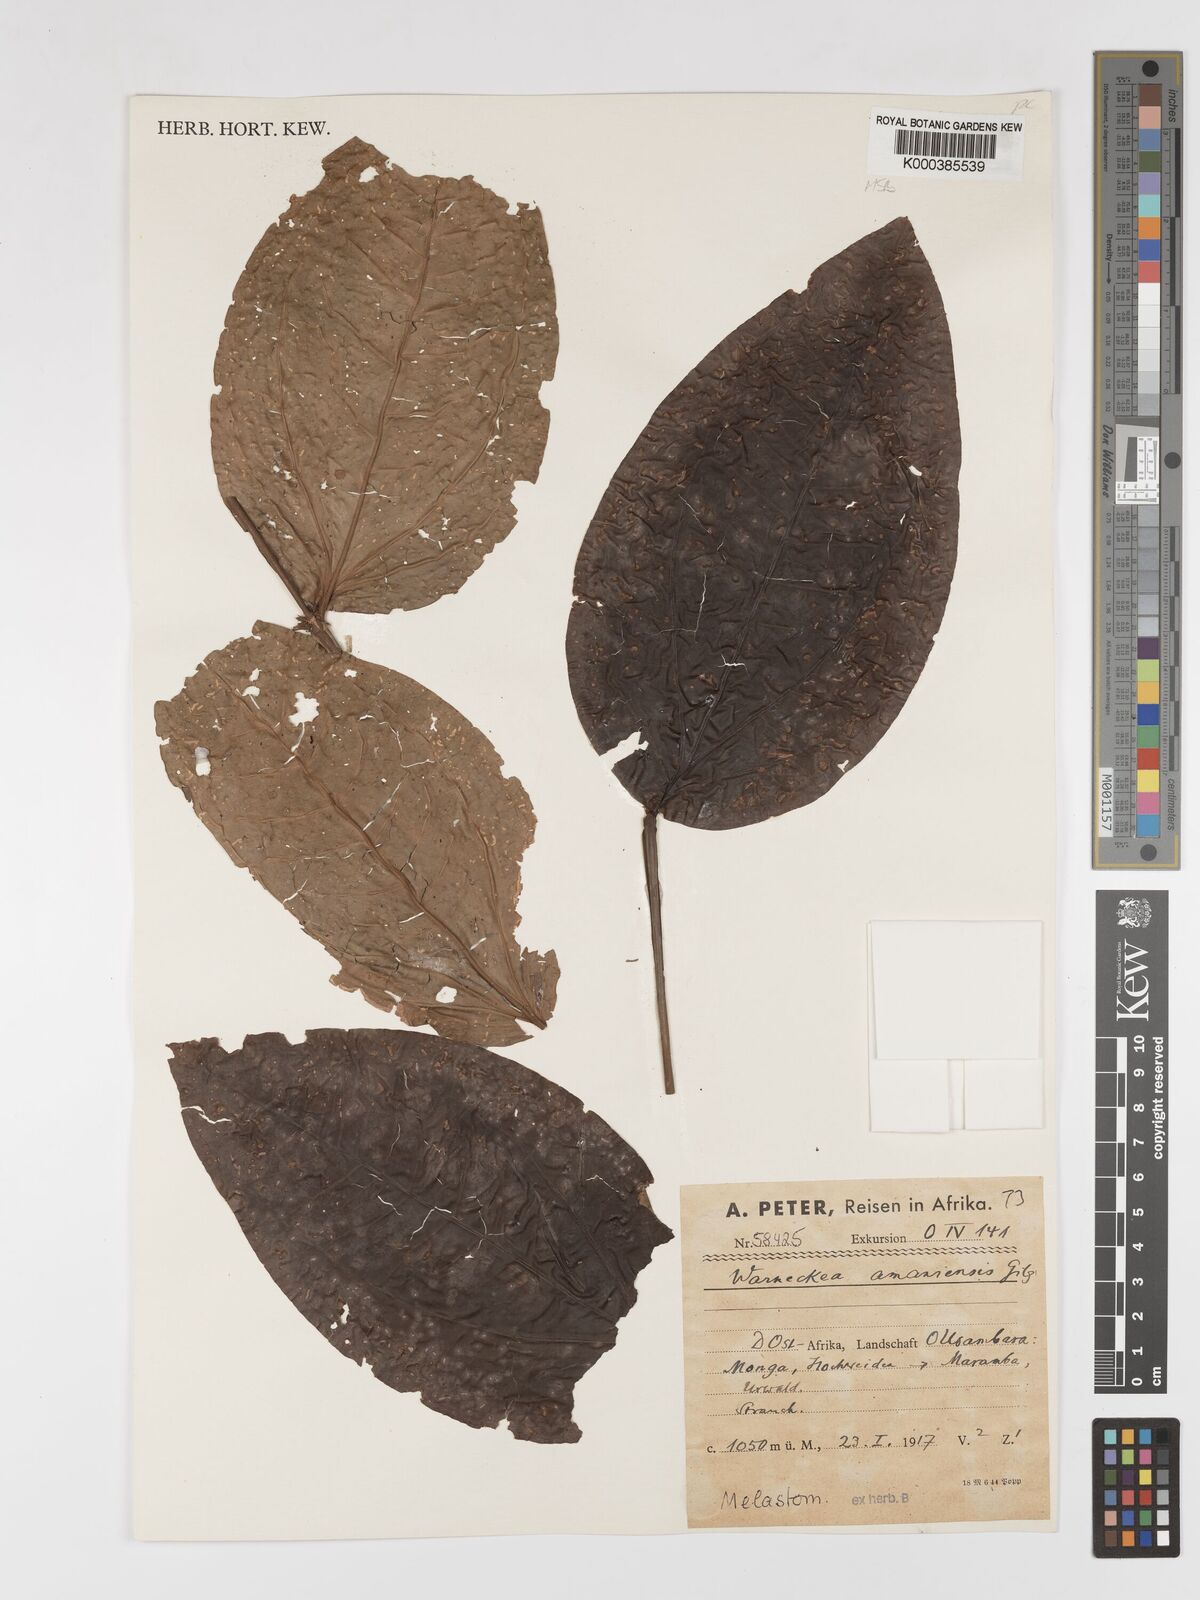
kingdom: Plantae
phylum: Tracheophyta
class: Magnoliopsida
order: Myrtales
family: Melastomataceae
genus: Warneckea
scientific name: Warneckea amaniensis
